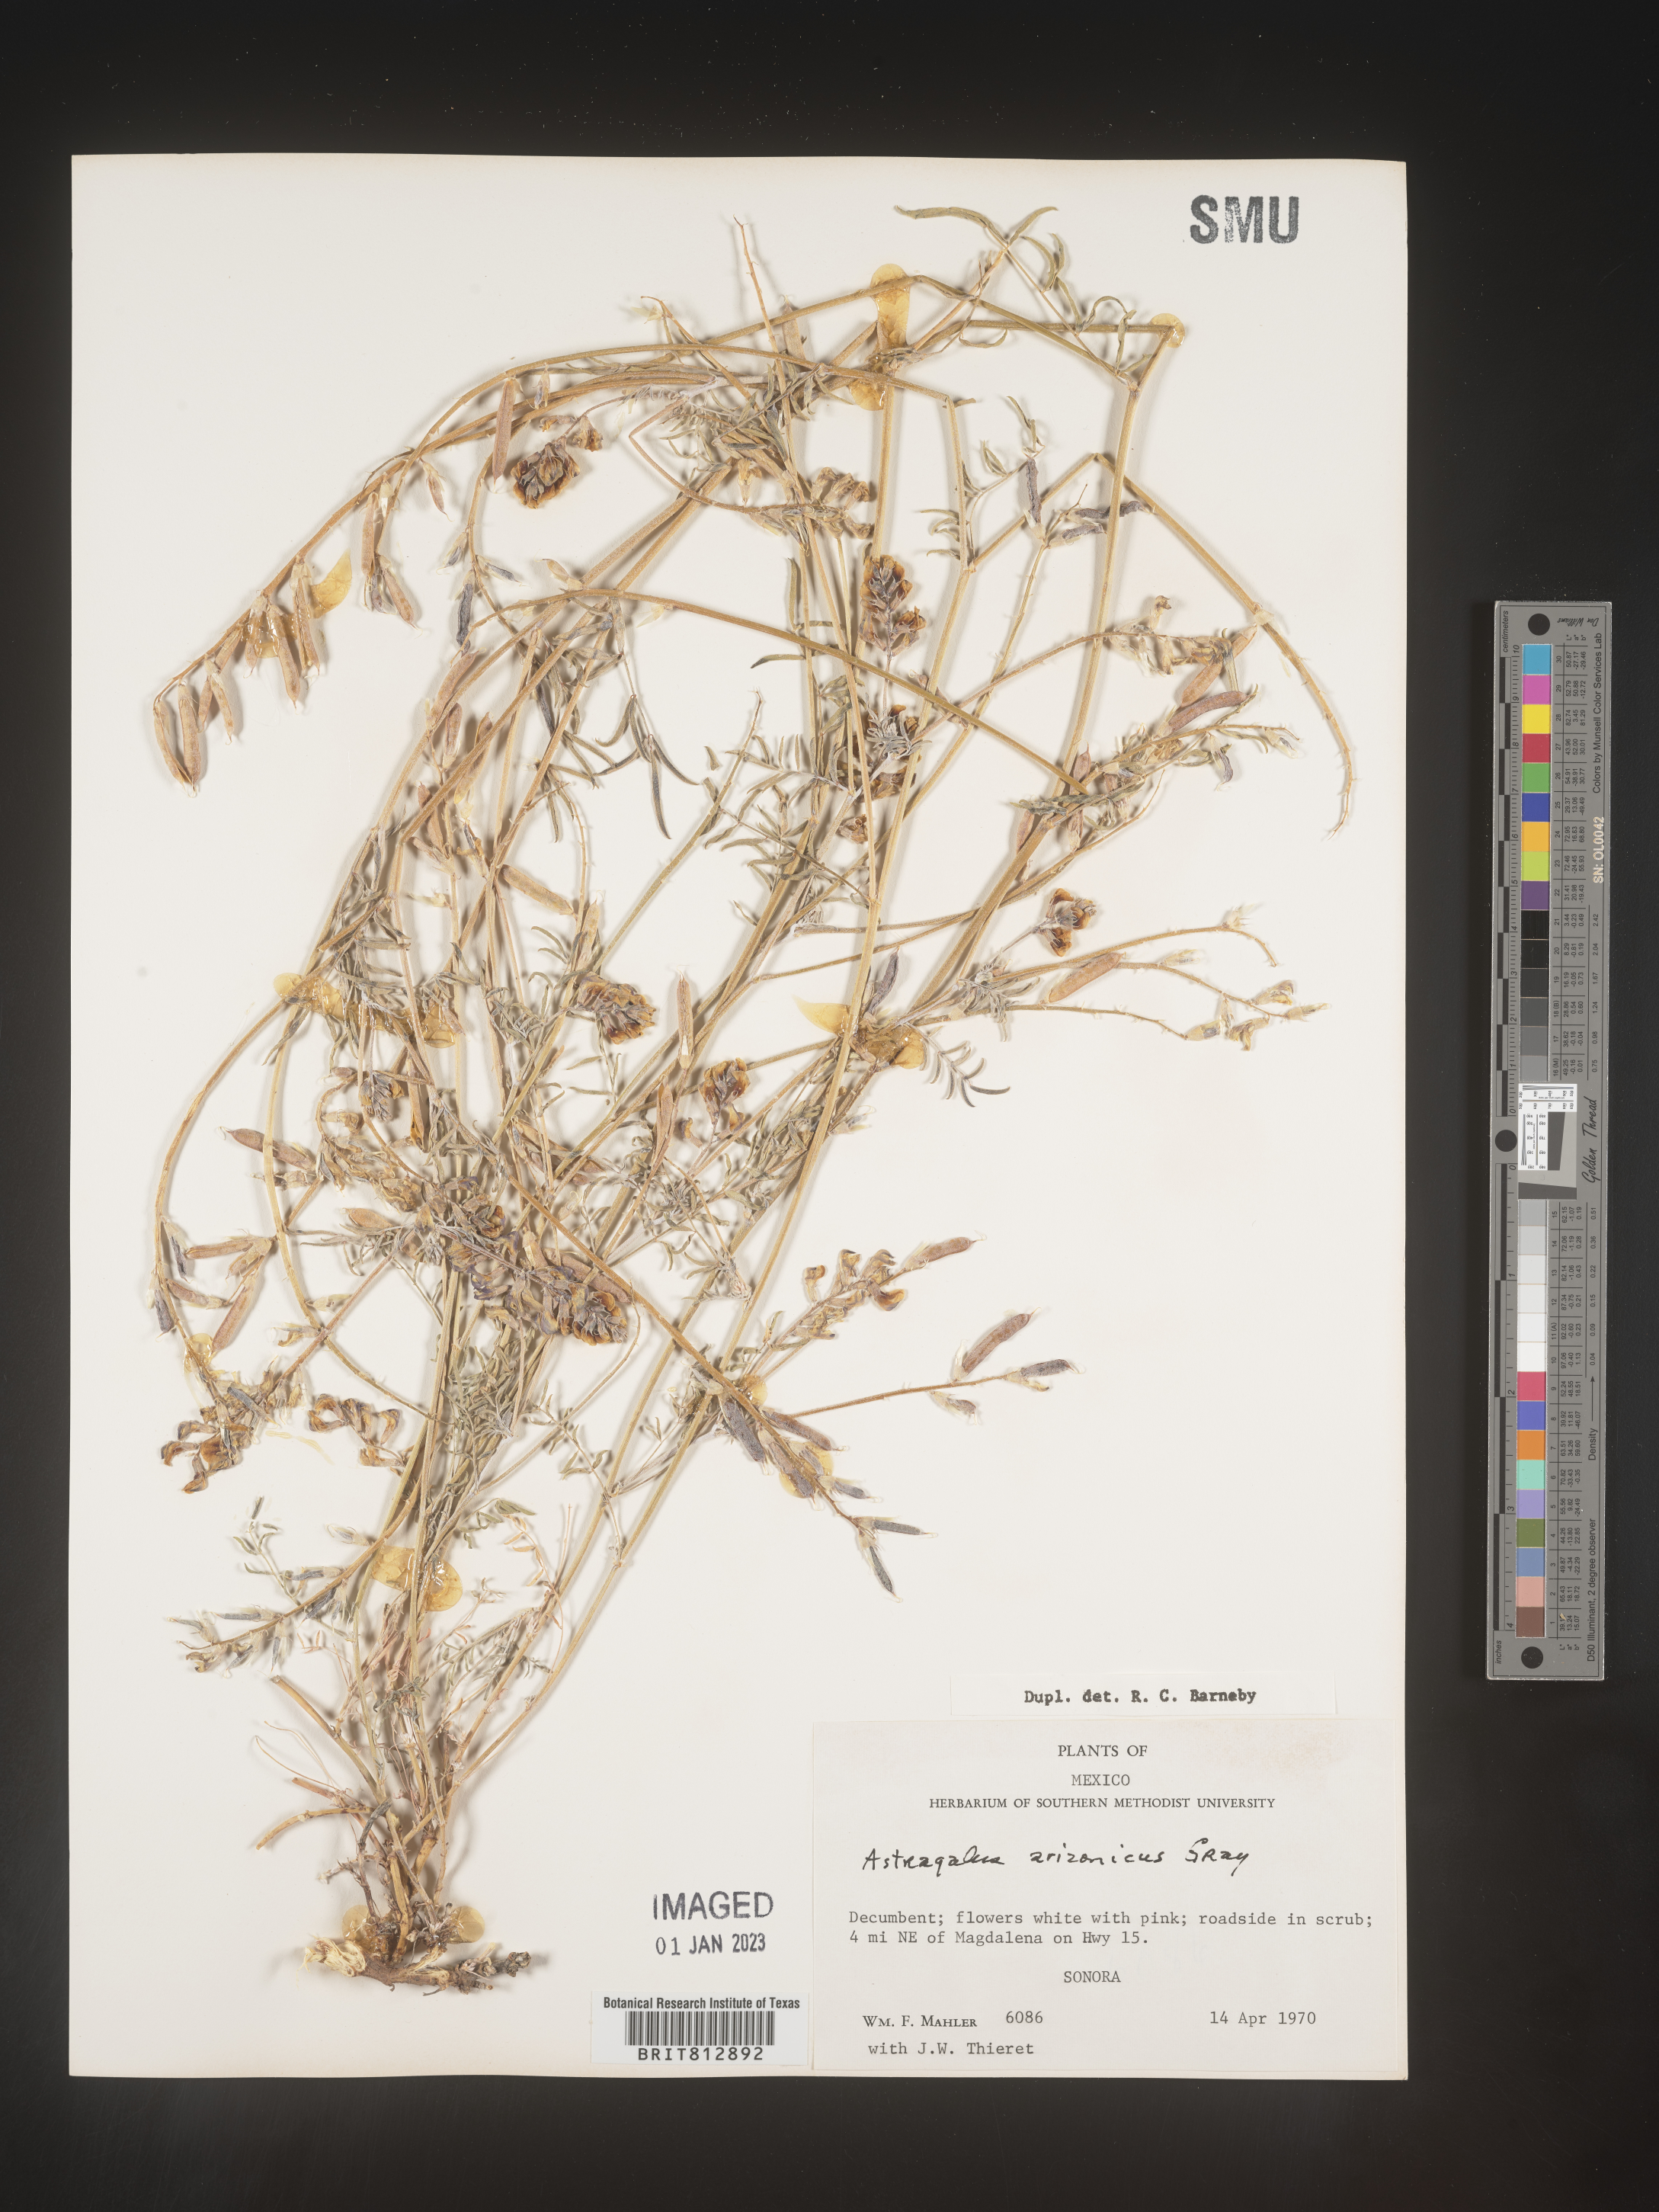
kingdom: Plantae
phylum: Tracheophyta
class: Magnoliopsida
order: Fabales
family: Fabaceae
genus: Astragalus
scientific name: Astragalus
